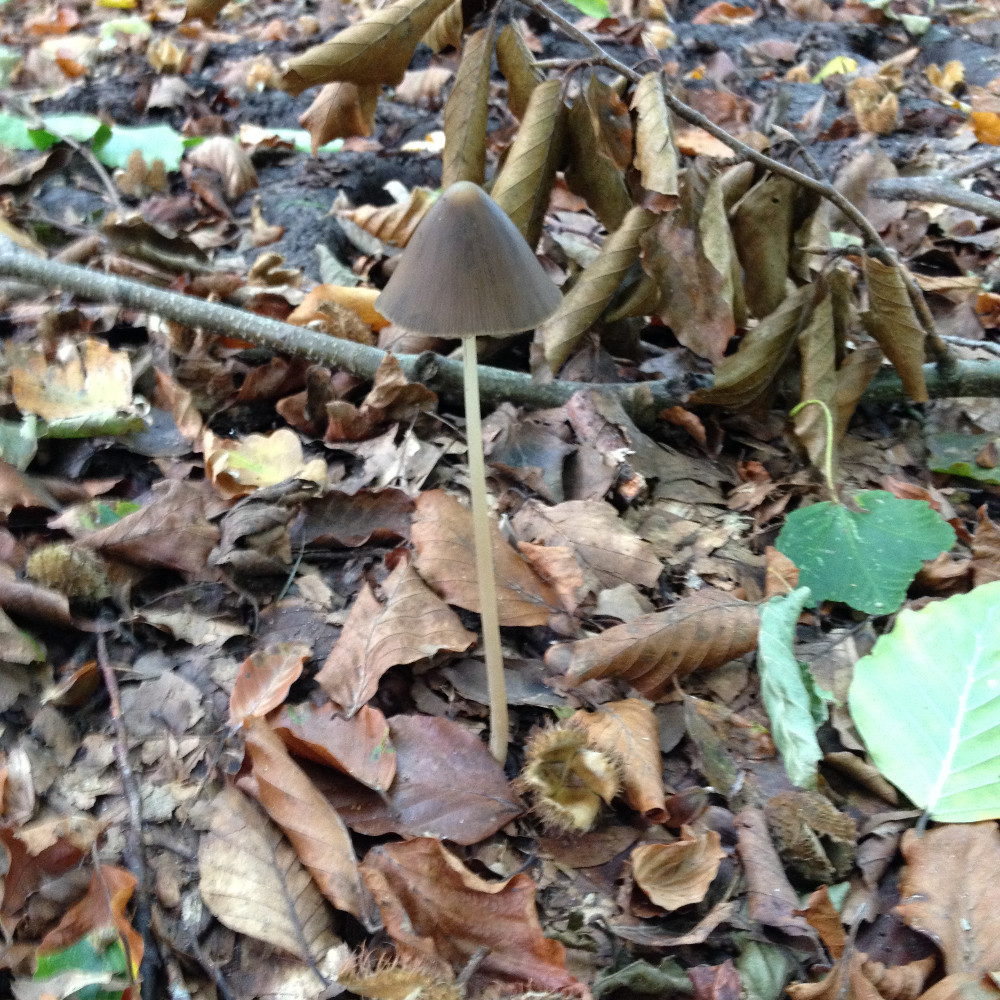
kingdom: Fungi
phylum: Basidiomycota
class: Agaricomycetes
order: Agaricales
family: Psathyrellaceae
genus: Parasola
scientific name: Parasola conopilea
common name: kegle-hjulhat
